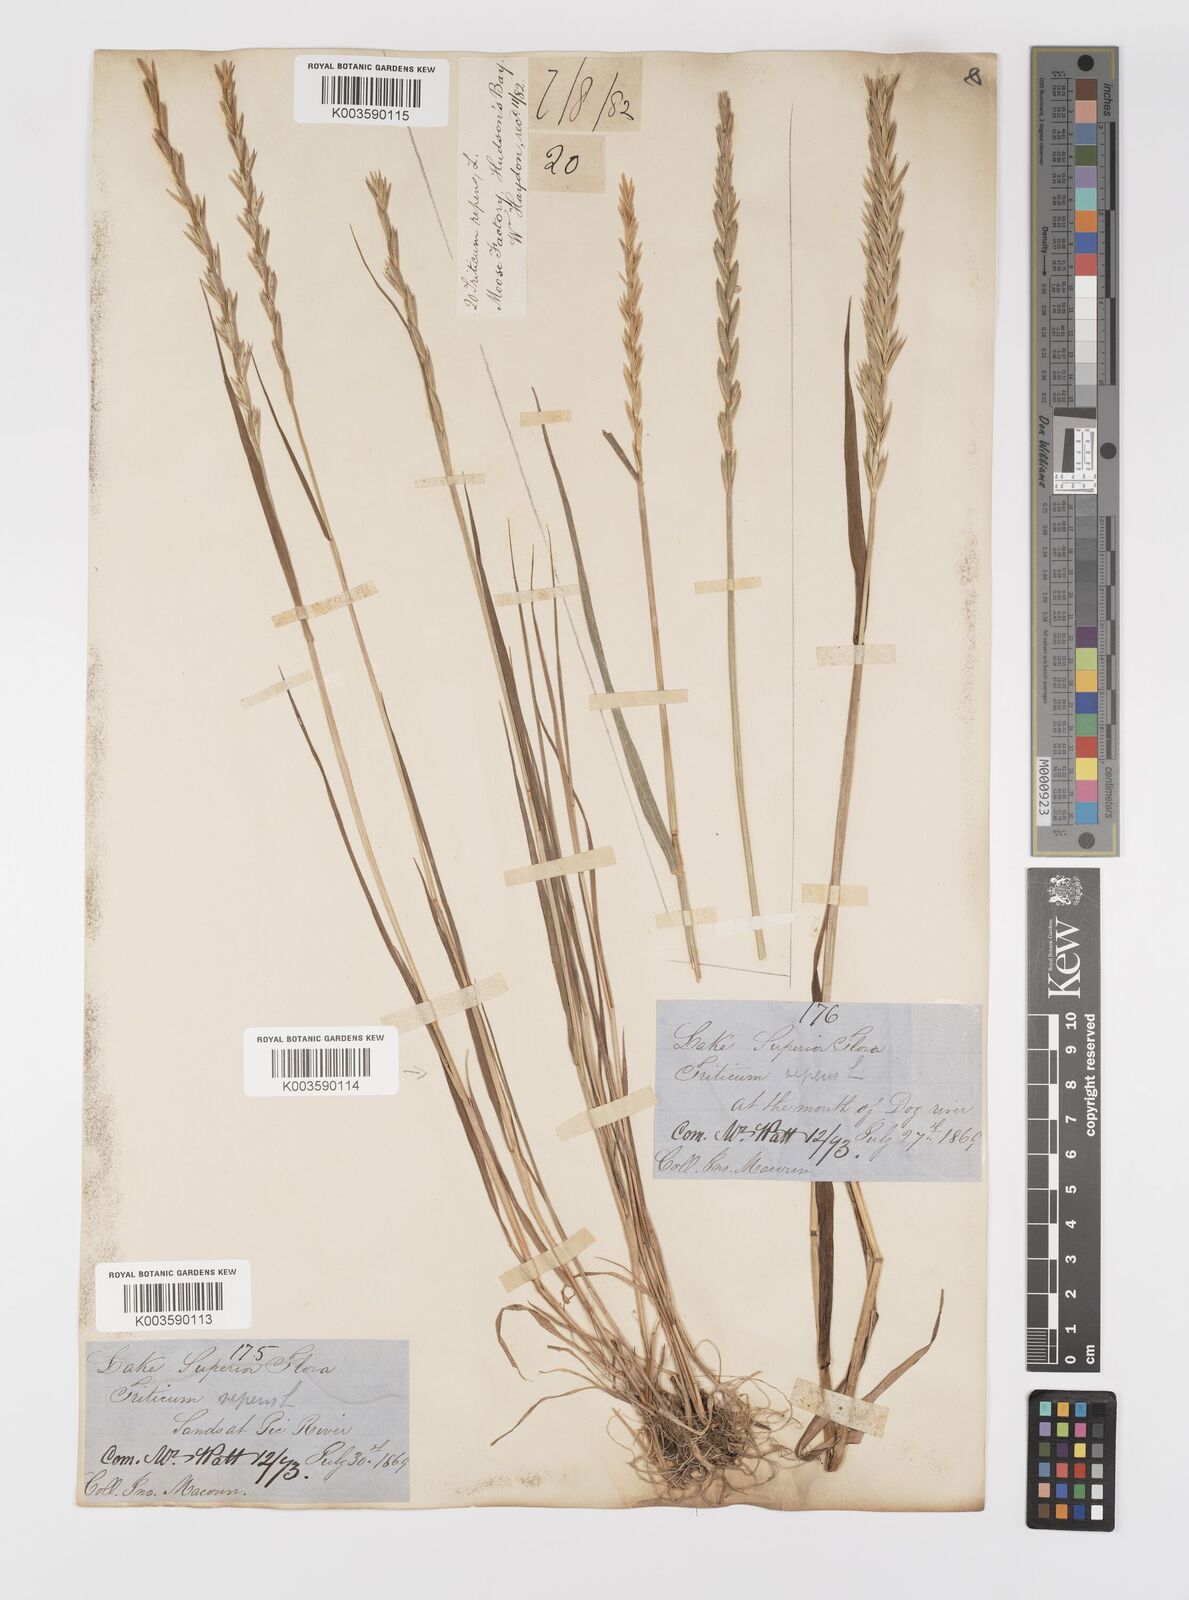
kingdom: Plantae
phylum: Tracheophyta
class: Liliopsida
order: Poales
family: Poaceae
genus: Elymus
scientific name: Elymus repens
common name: Quackgrass
